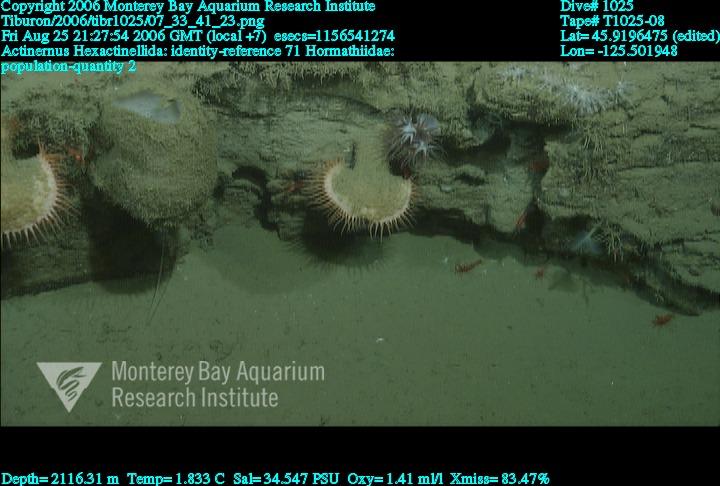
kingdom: Animalia
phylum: Porifera
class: Hexactinellida
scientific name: Hexactinellida
